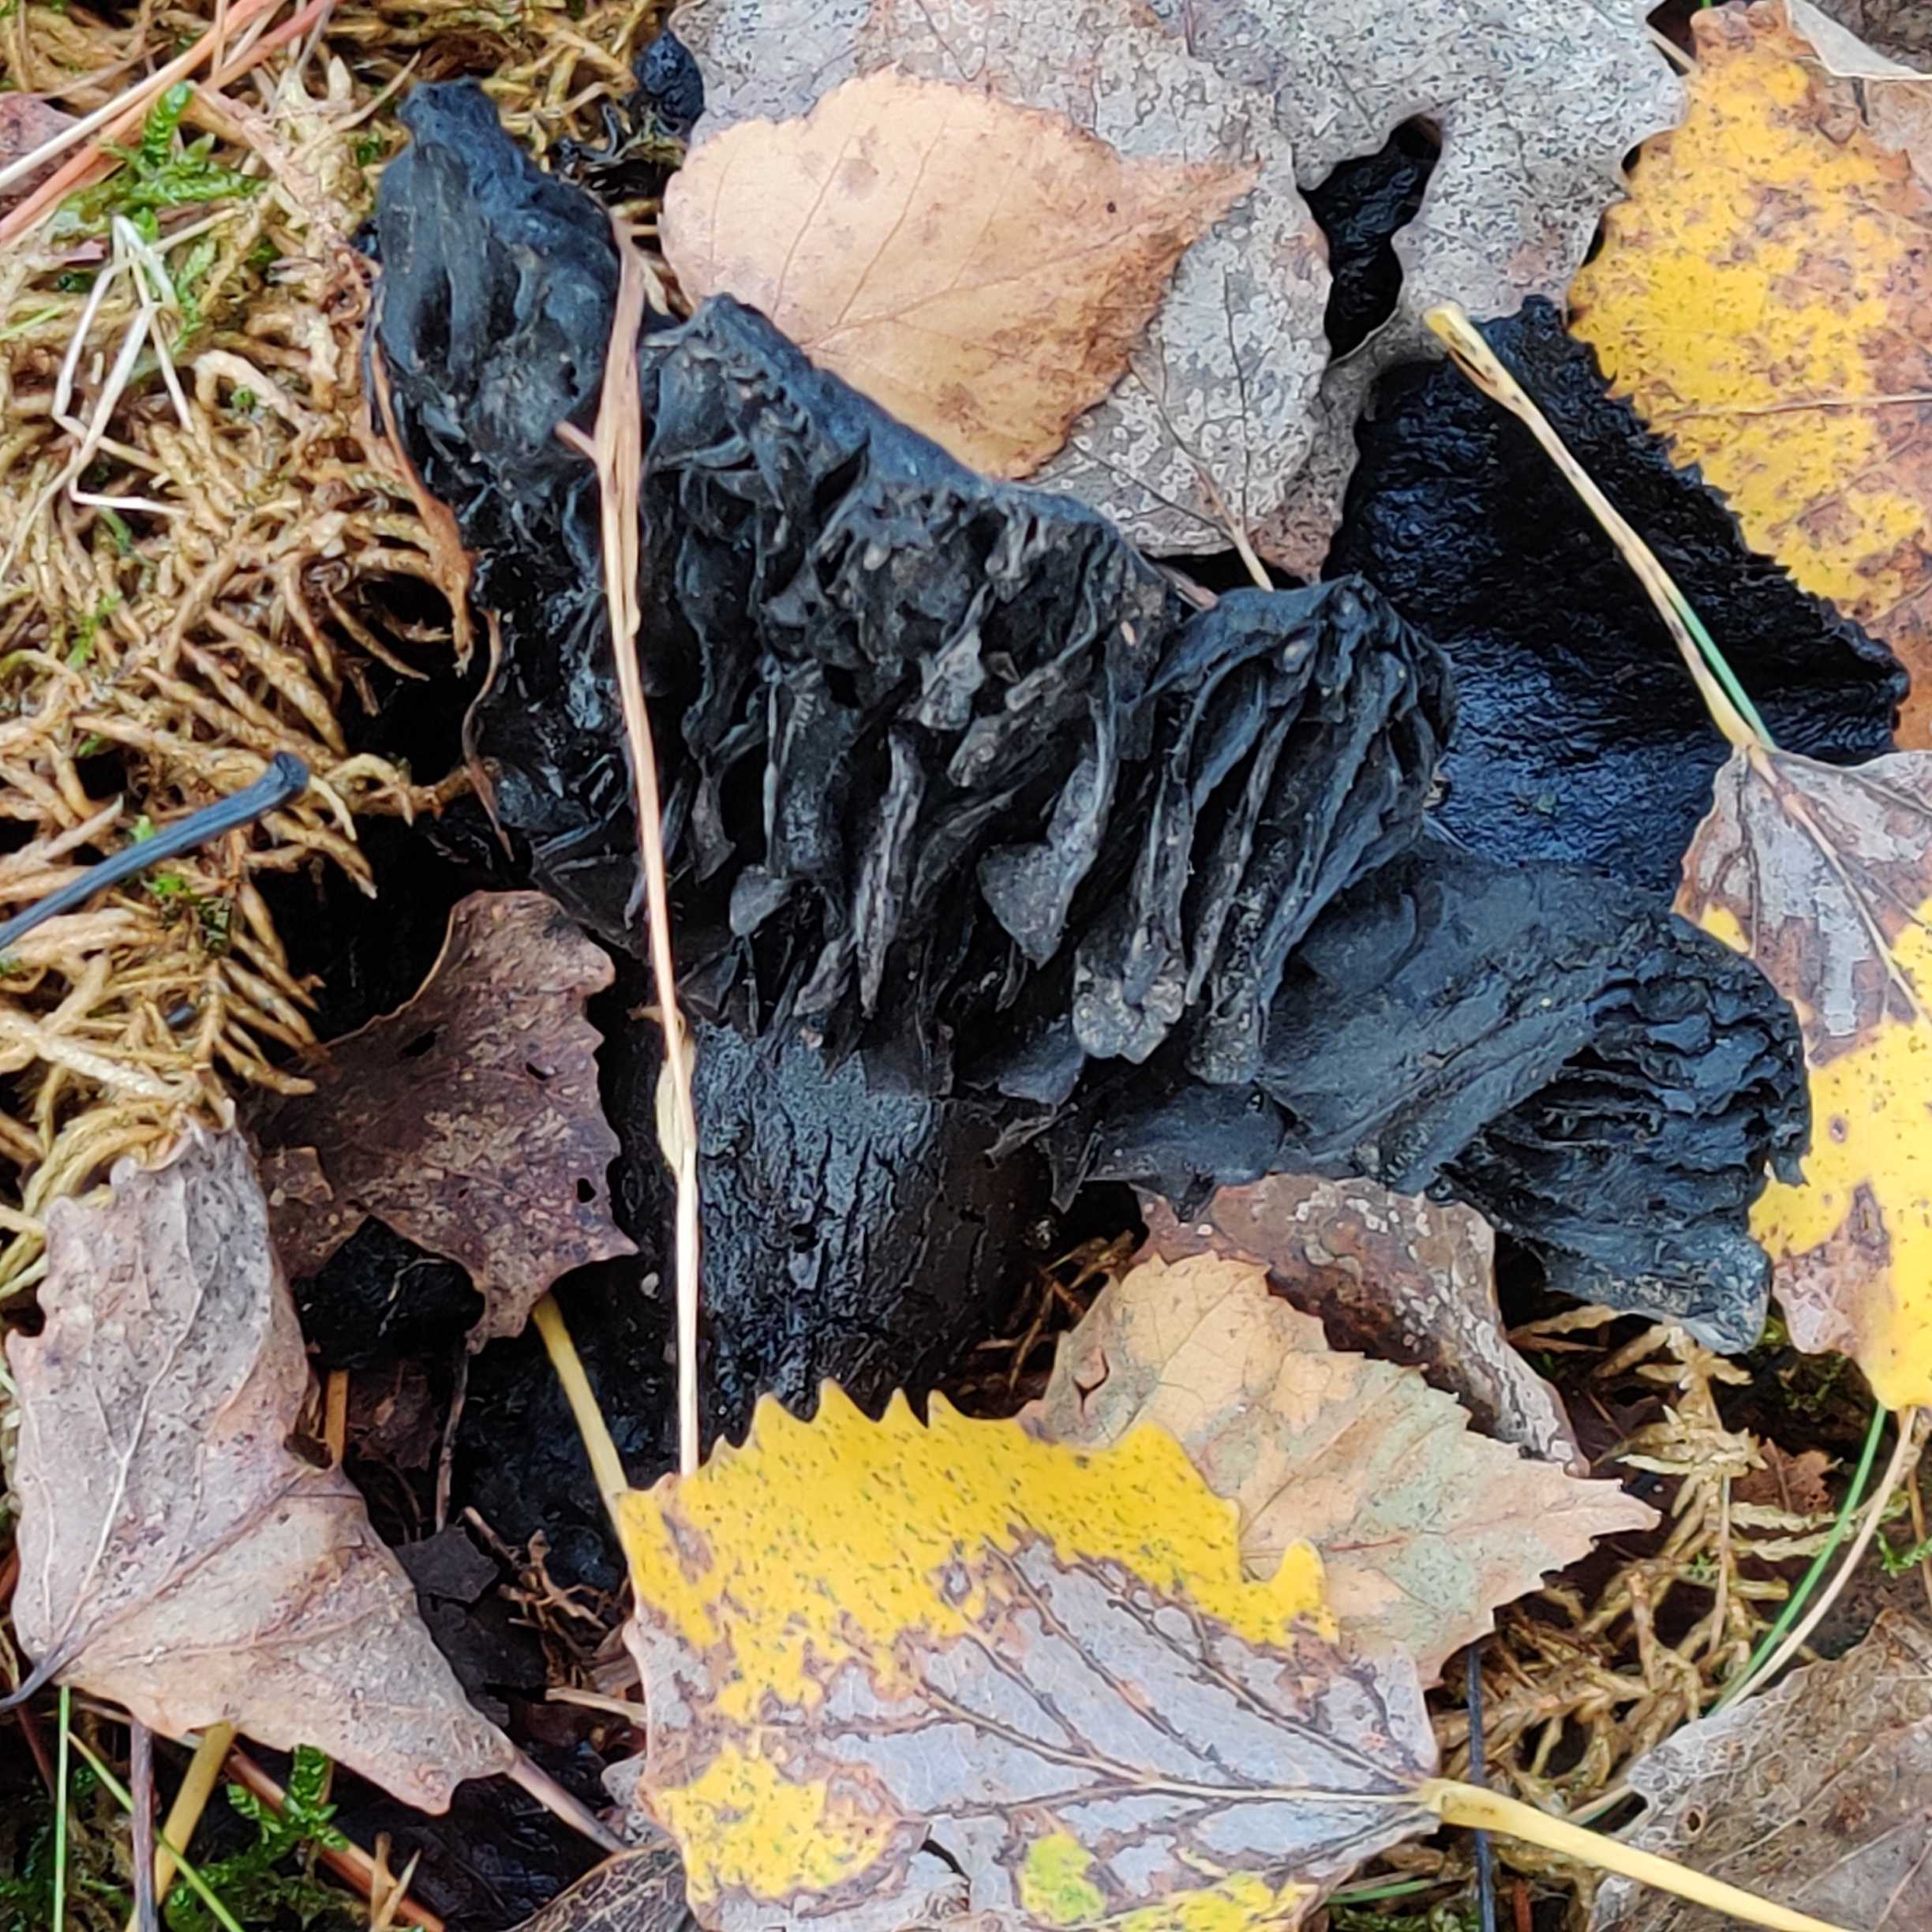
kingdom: Fungi
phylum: Basidiomycota
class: Agaricomycetes
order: Russulales
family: Russulaceae
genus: Russula
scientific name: Russula adusta
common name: sværtende skørhat
